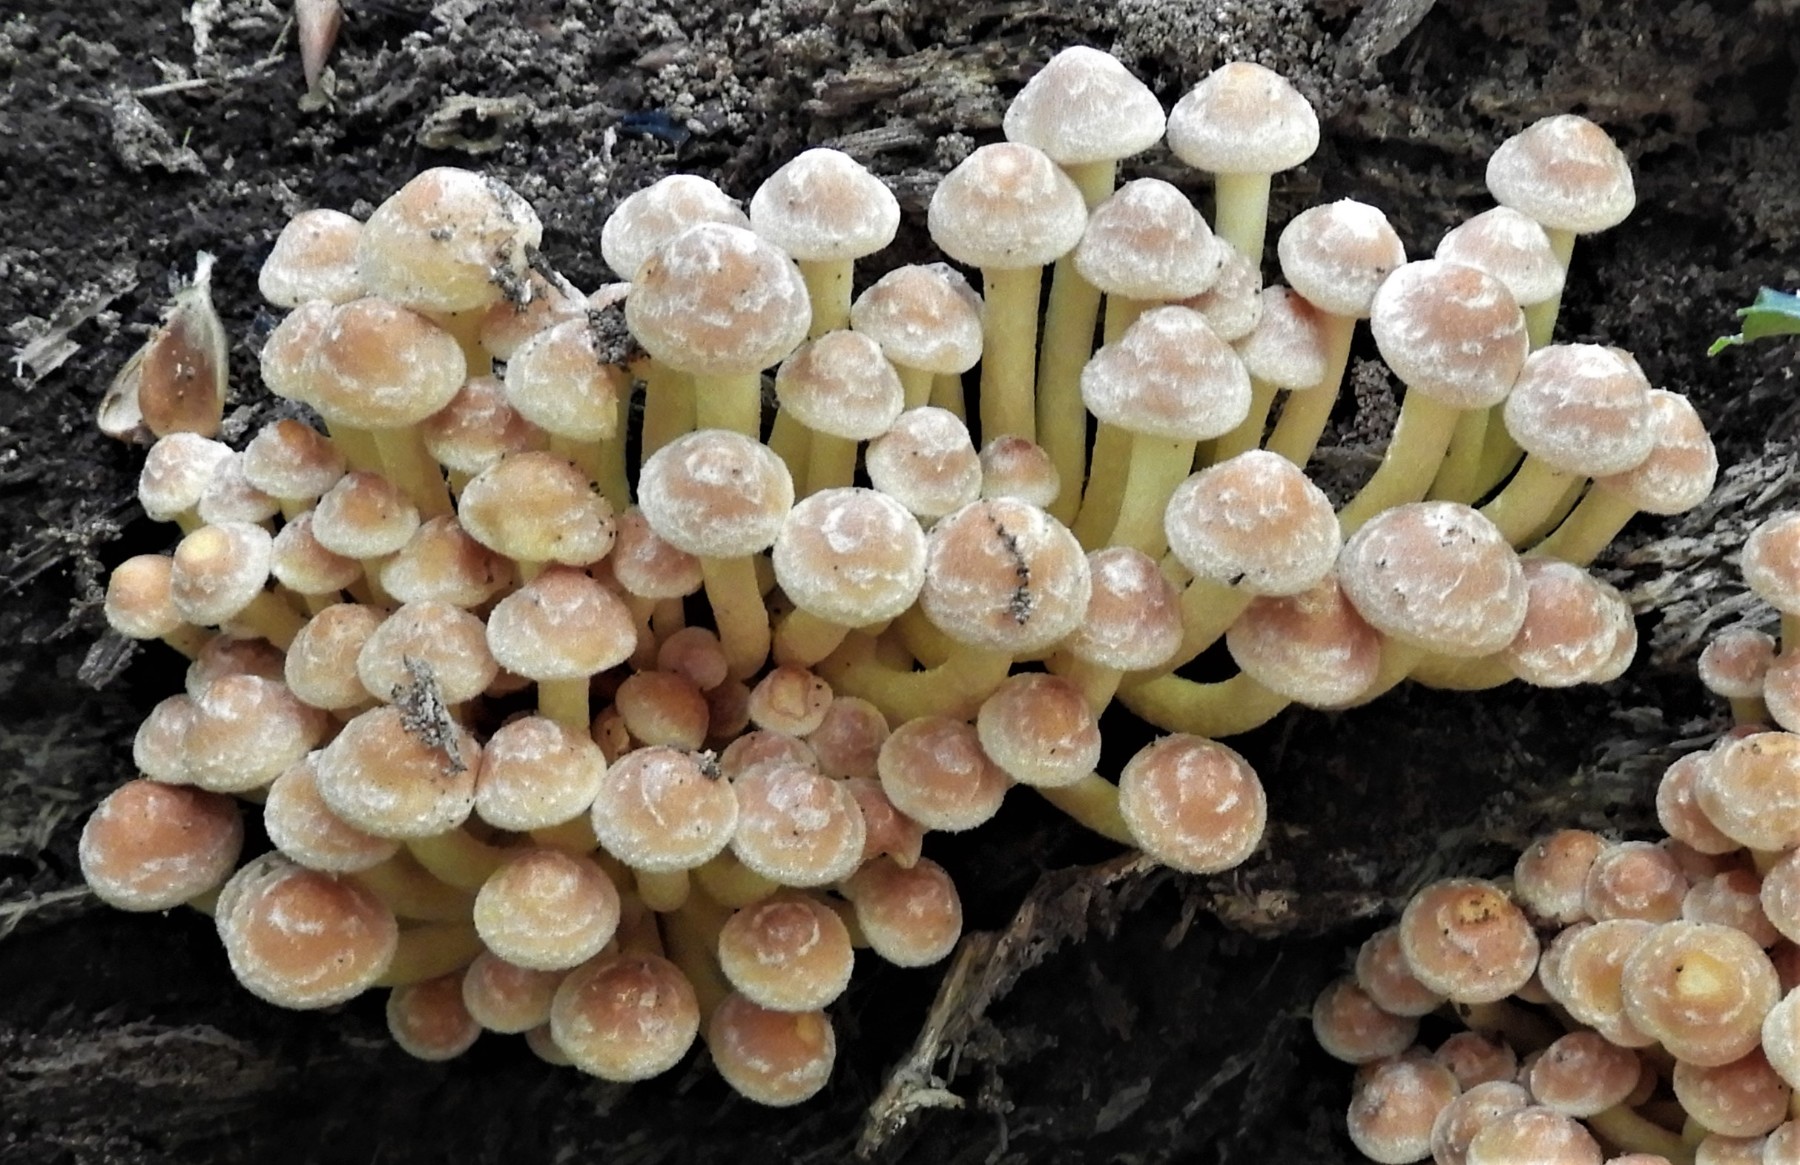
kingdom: Fungi
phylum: Basidiomycota
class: Agaricomycetes
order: Agaricales
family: Strophariaceae
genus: Hypholoma
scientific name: Hypholoma fasciculare
